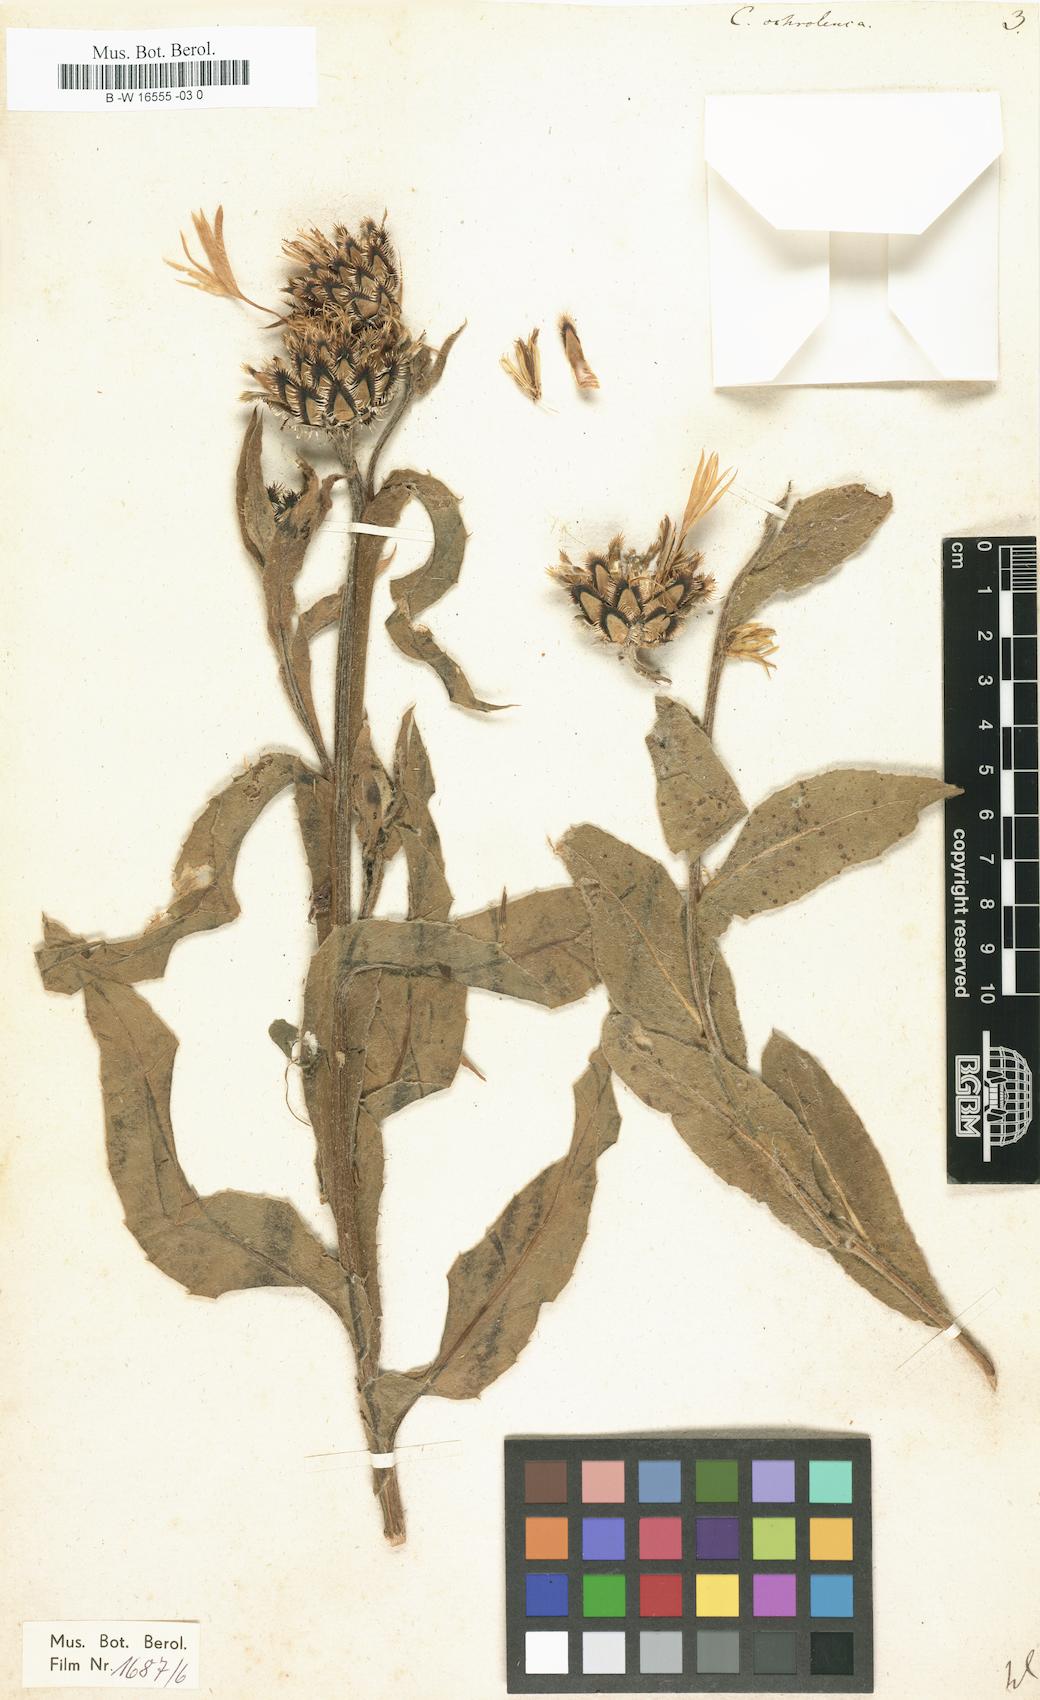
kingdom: Plantae
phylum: Tracheophyta
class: Magnoliopsida
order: Asterales
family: Asteraceae
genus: Centaurea
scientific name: Centaurea cheiranthifolia
